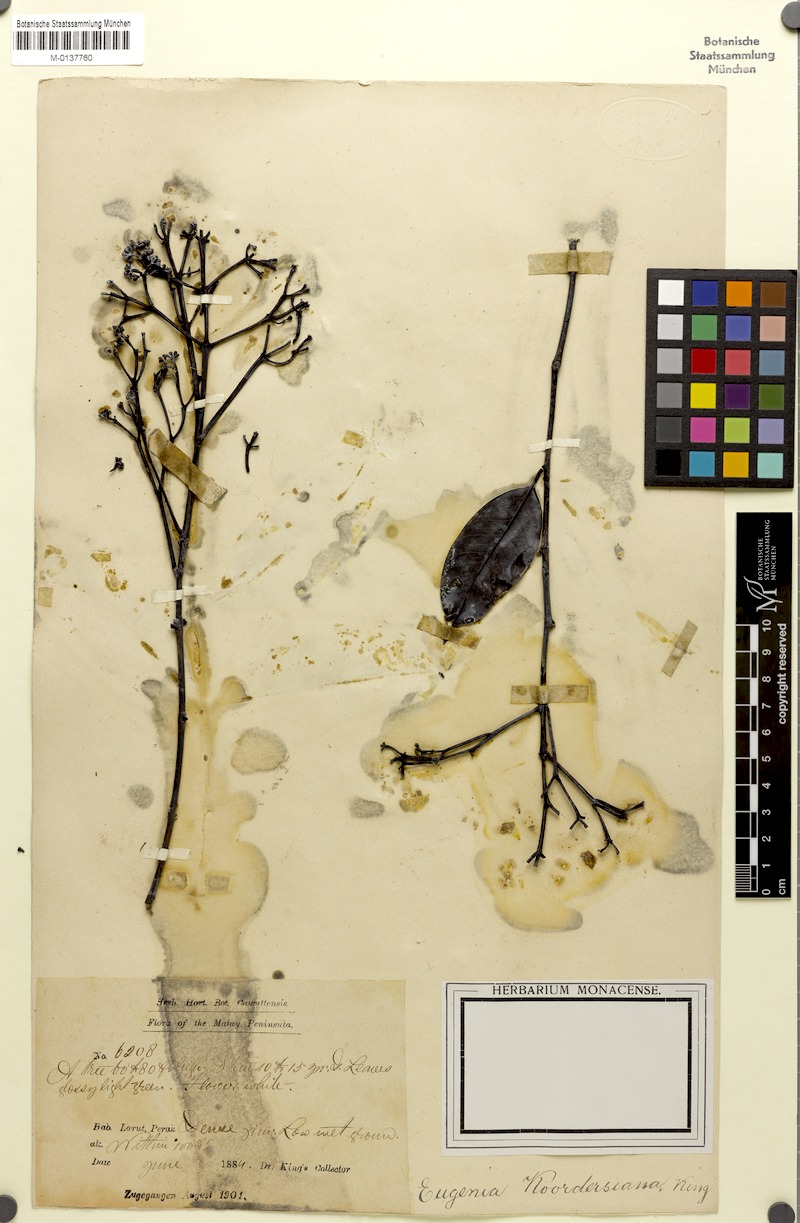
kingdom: Plantae
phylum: Tracheophyta
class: Magnoliopsida
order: Myrtales
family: Myrtaceae
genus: Syzygium
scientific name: Syzygium koordersianum
